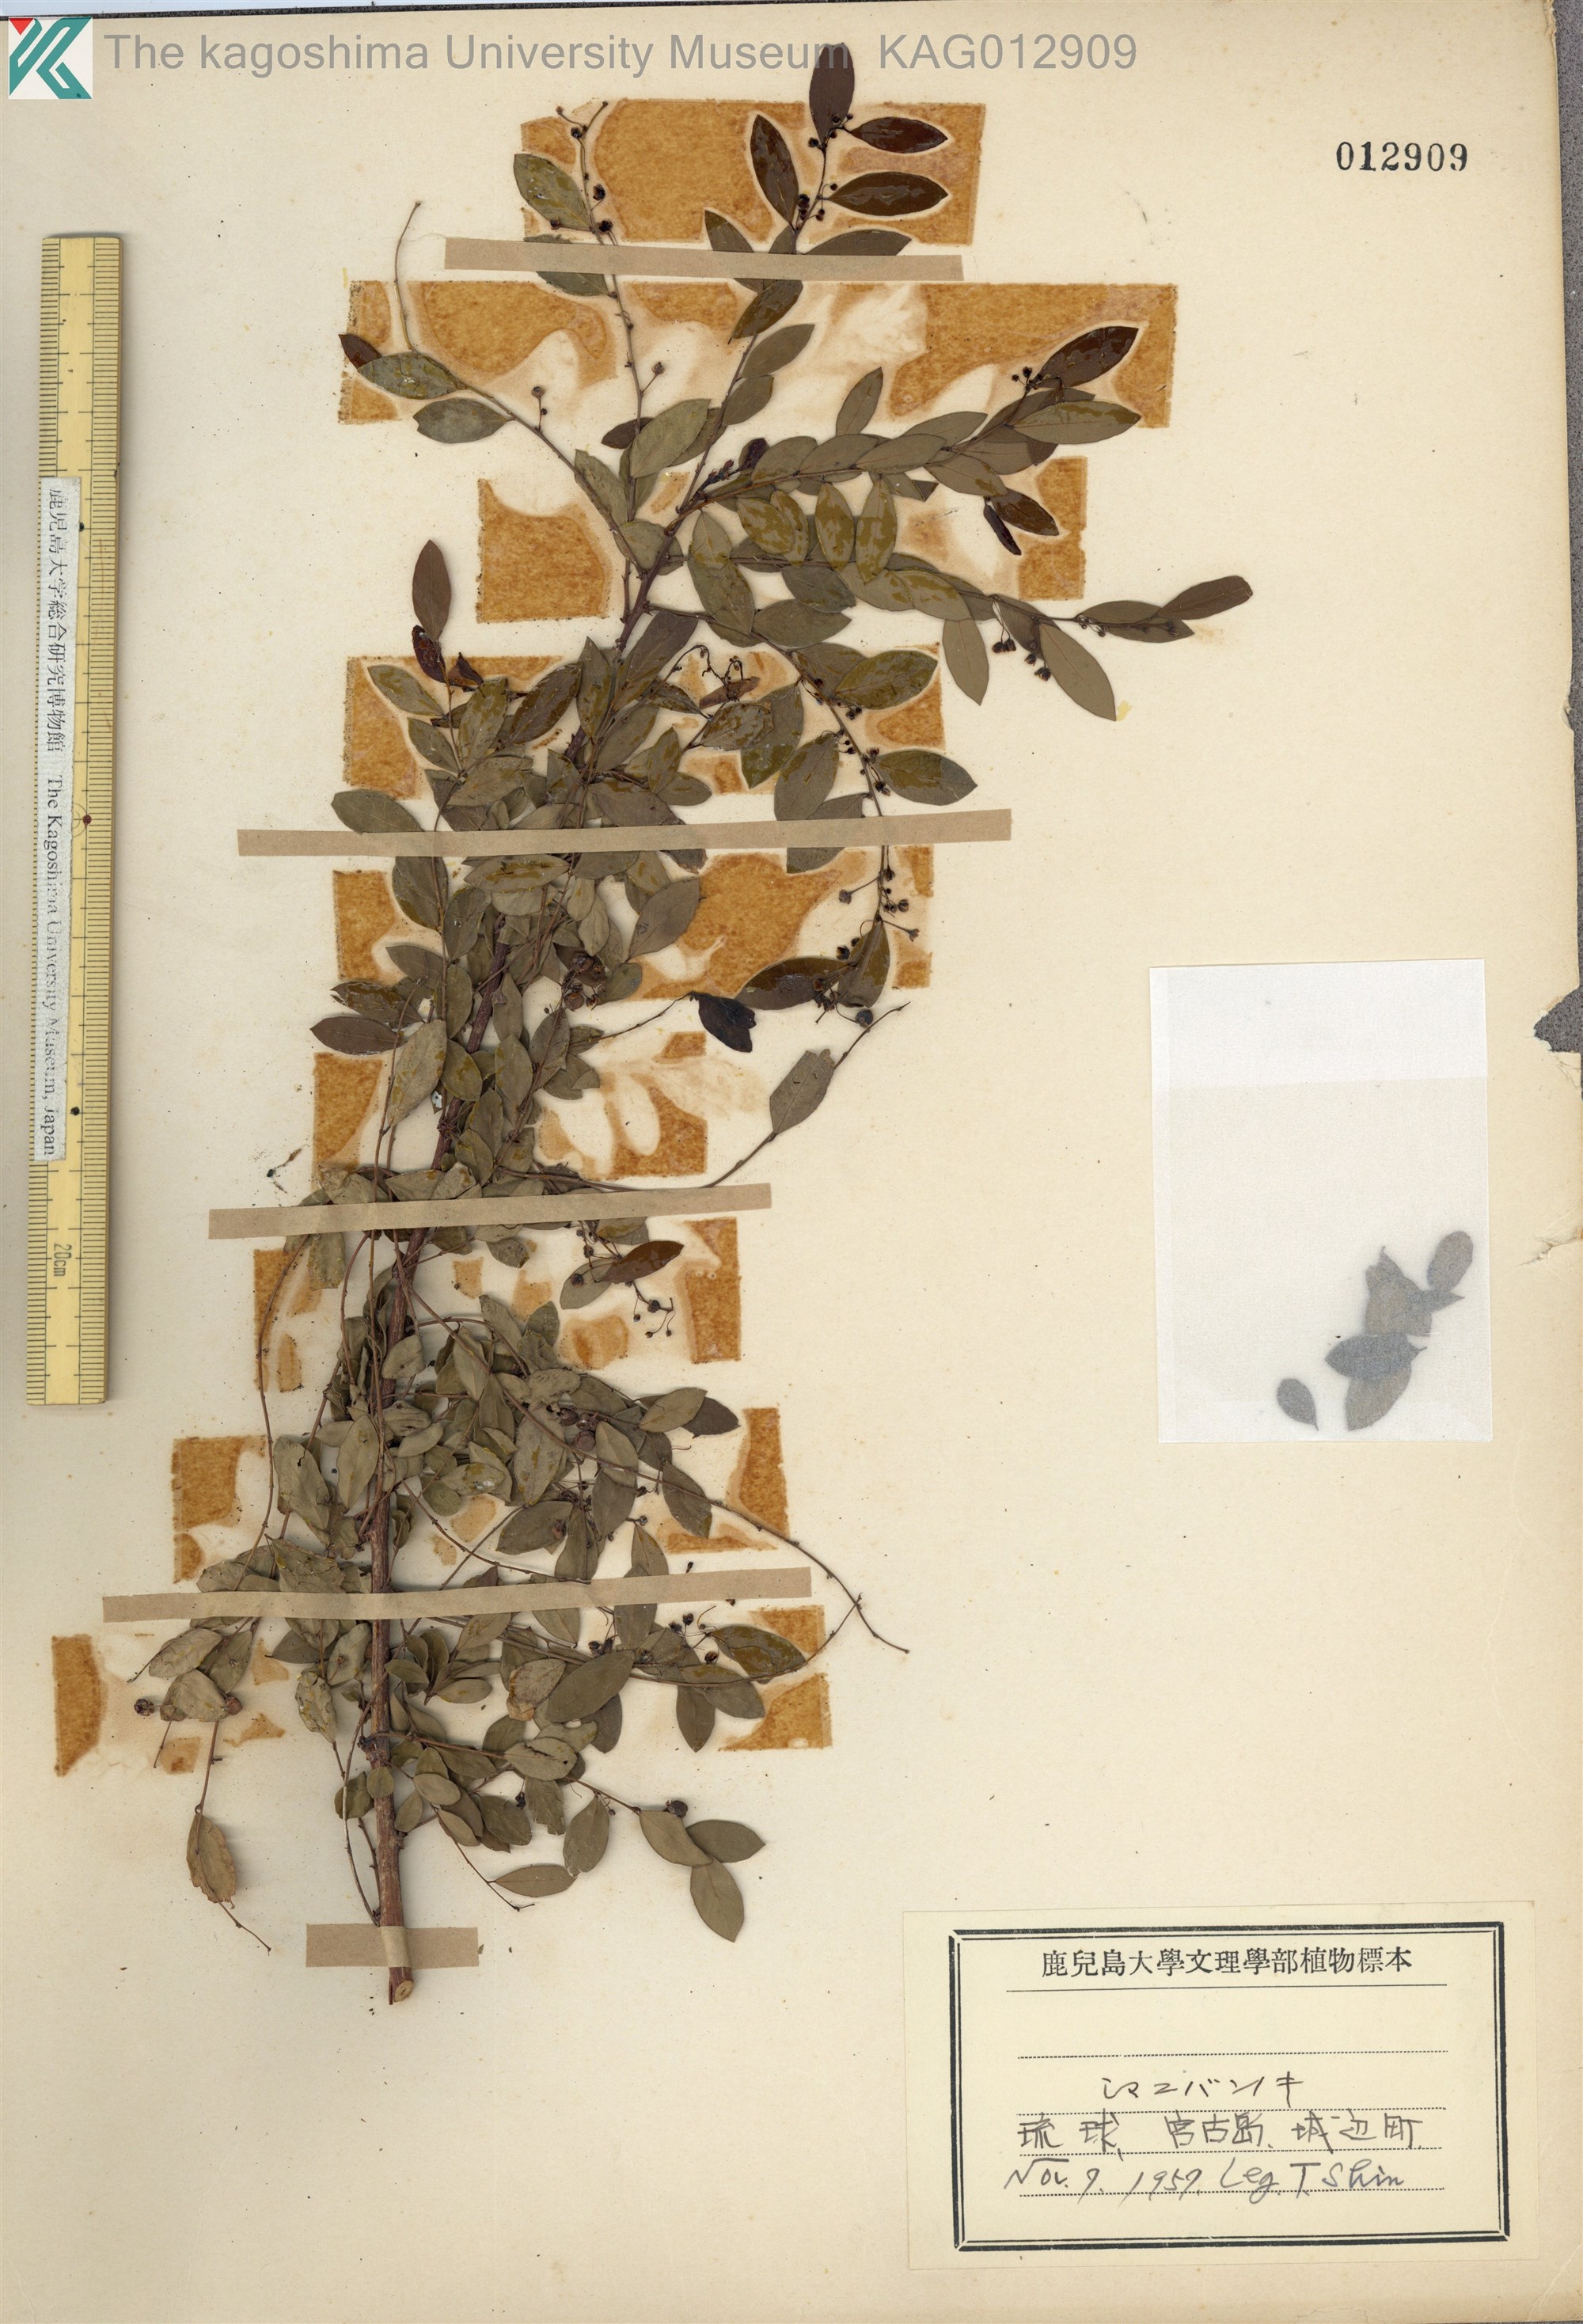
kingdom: Plantae
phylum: Tracheophyta
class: Magnoliopsida
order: Malpighiales
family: Phyllanthaceae
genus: Phyllanthus
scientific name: Phyllanthus reticulatus
